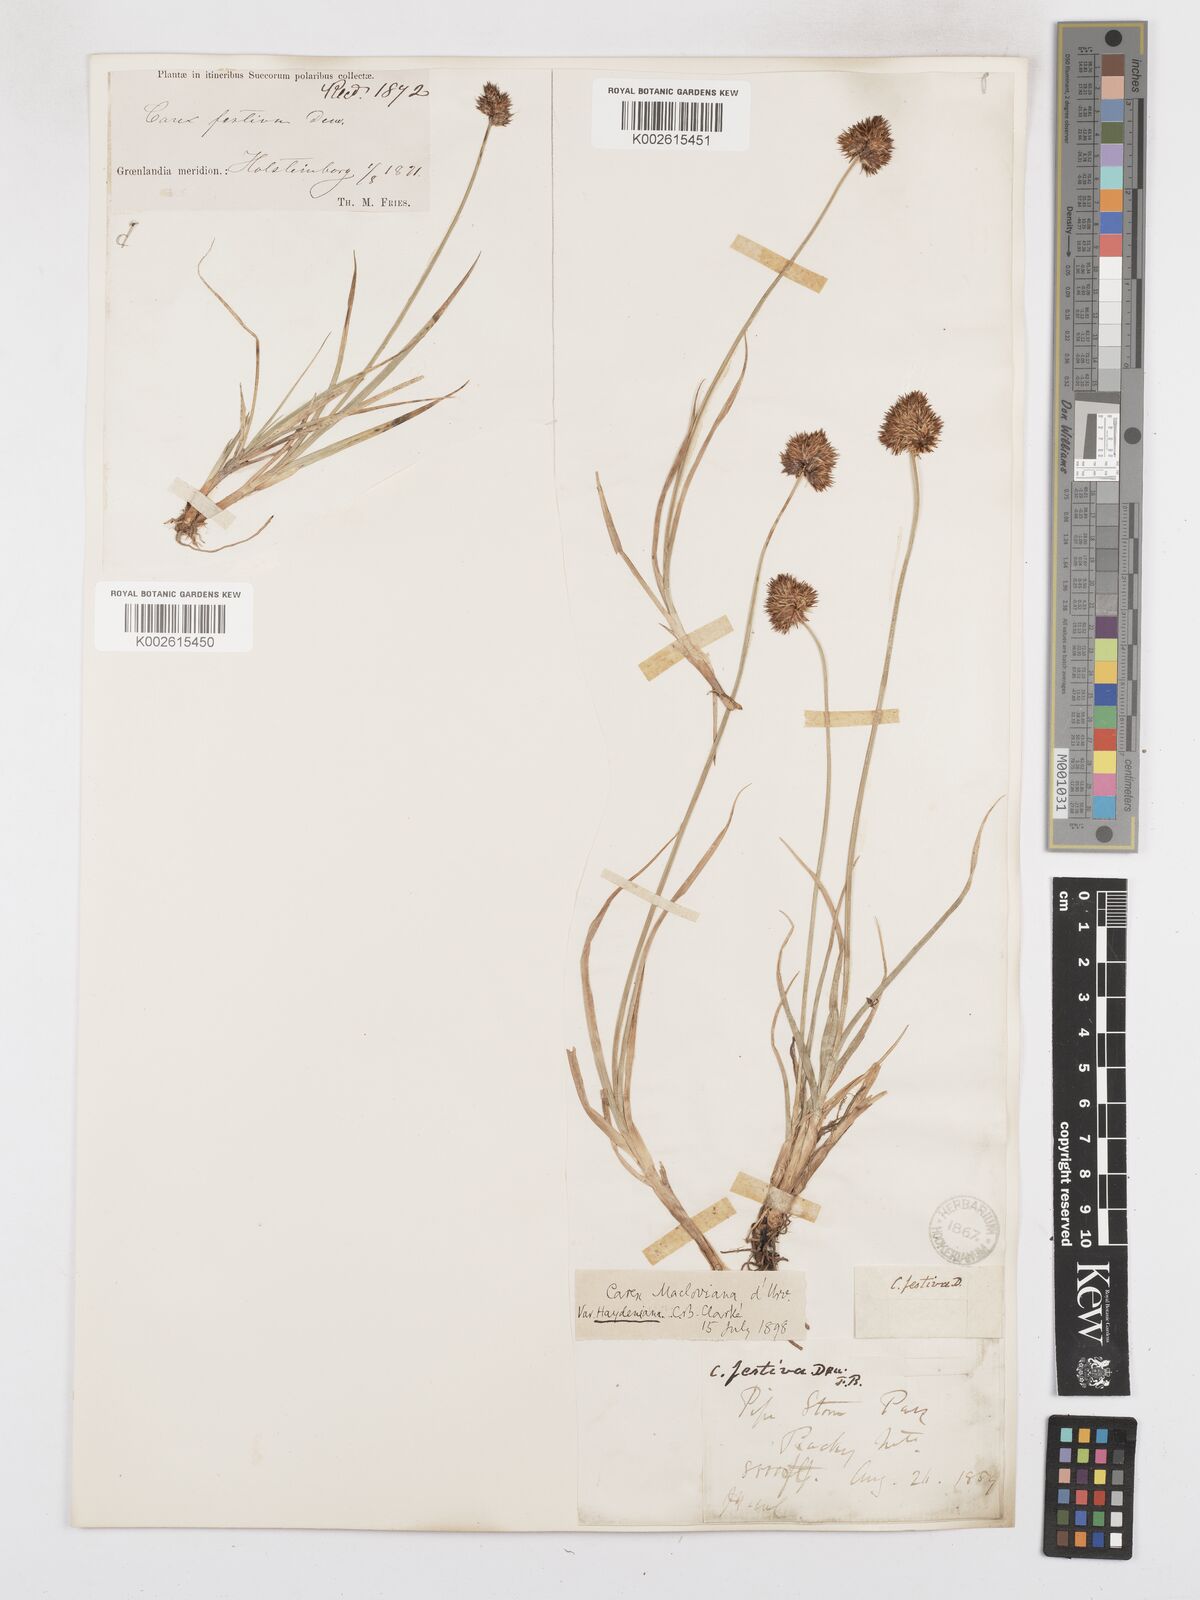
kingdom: Plantae
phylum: Tracheophyta
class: Liliopsida
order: Poales
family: Cyperaceae
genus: Carex
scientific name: Carex mackenziana
